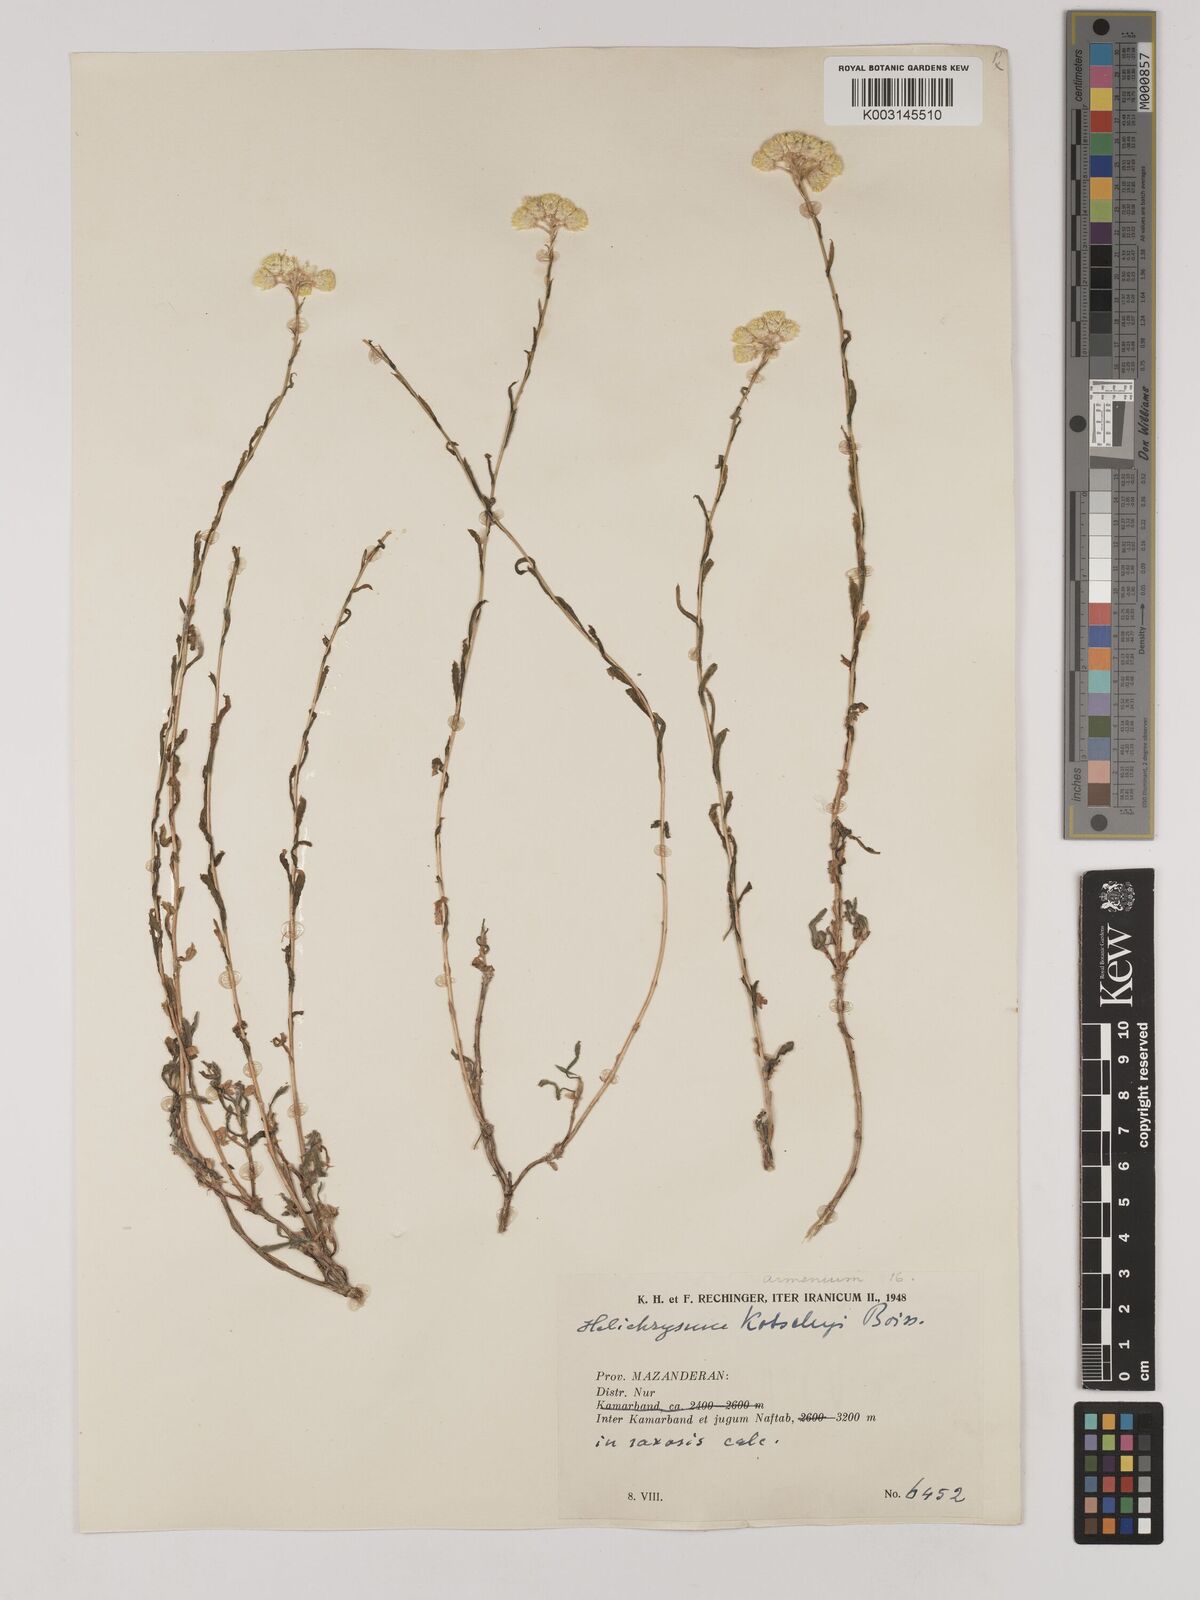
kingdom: Plantae
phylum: Tracheophyta
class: Magnoliopsida
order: Asterales
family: Asteraceae
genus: Helichrysum
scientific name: Helichrysum armenium
